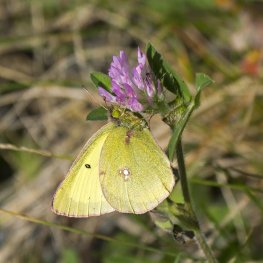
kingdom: Animalia
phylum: Arthropoda
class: Insecta
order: Lepidoptera
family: Pieridae
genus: Colias
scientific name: Colias philodice
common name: Clouded Sulphur
